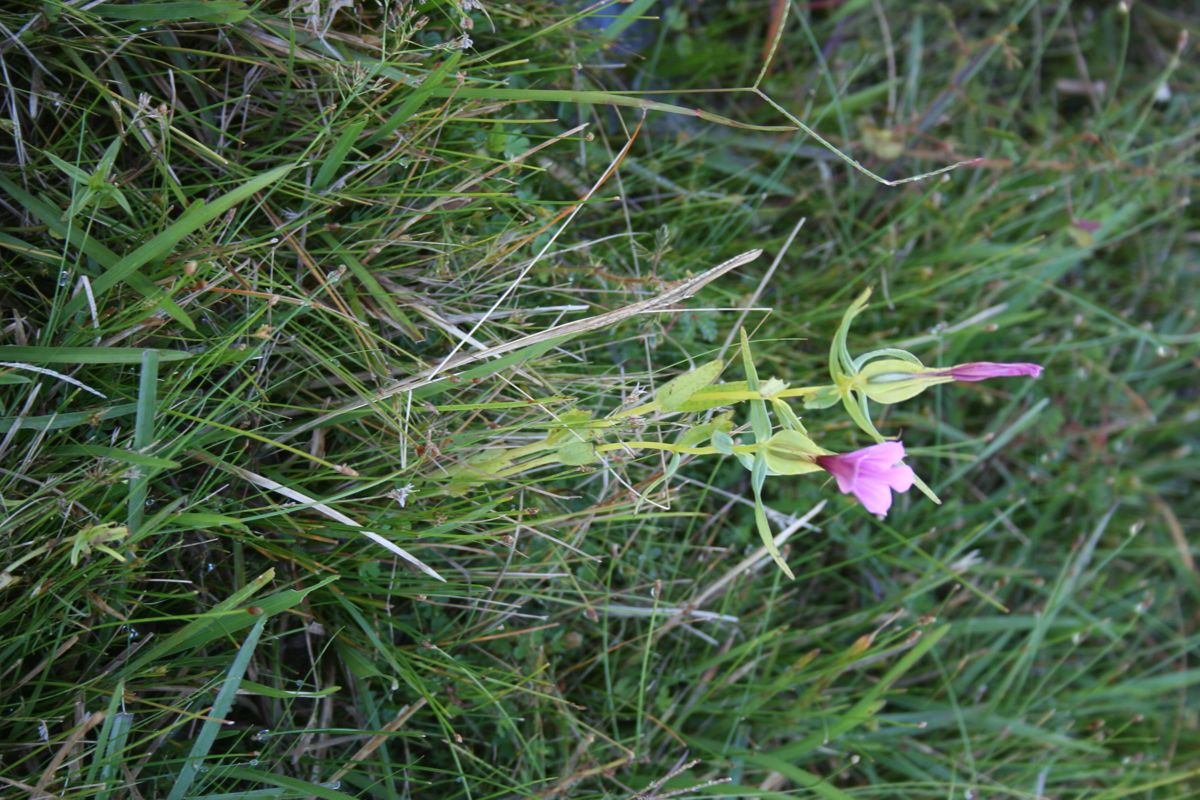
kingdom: Plantae
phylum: Tracheophyta
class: Magnoliopsida
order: Gentianales
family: Gentianaceae
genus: Schultesia
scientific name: Schultesia heterophylla
